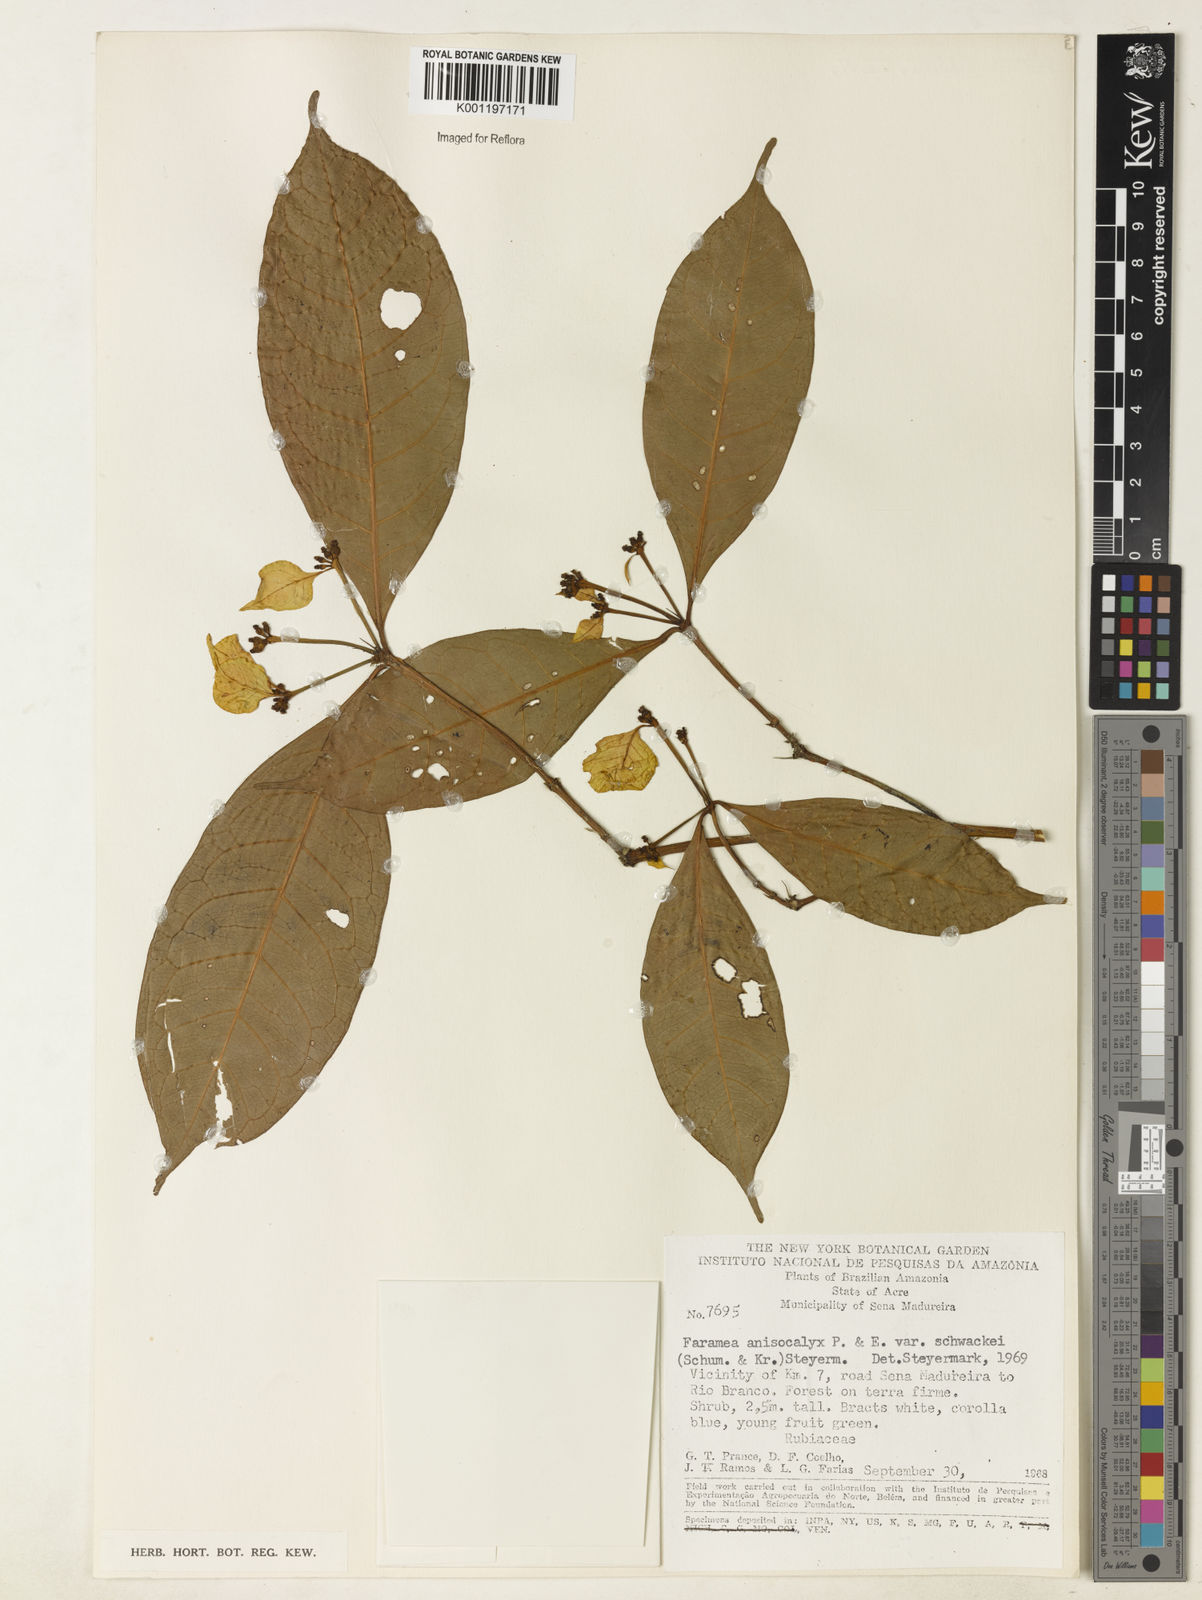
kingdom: Plantae
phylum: Tracheophyta
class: Magnoliopsida
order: Gentianales
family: Rubiaceae
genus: Faramea
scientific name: Faramea anisocalyx
